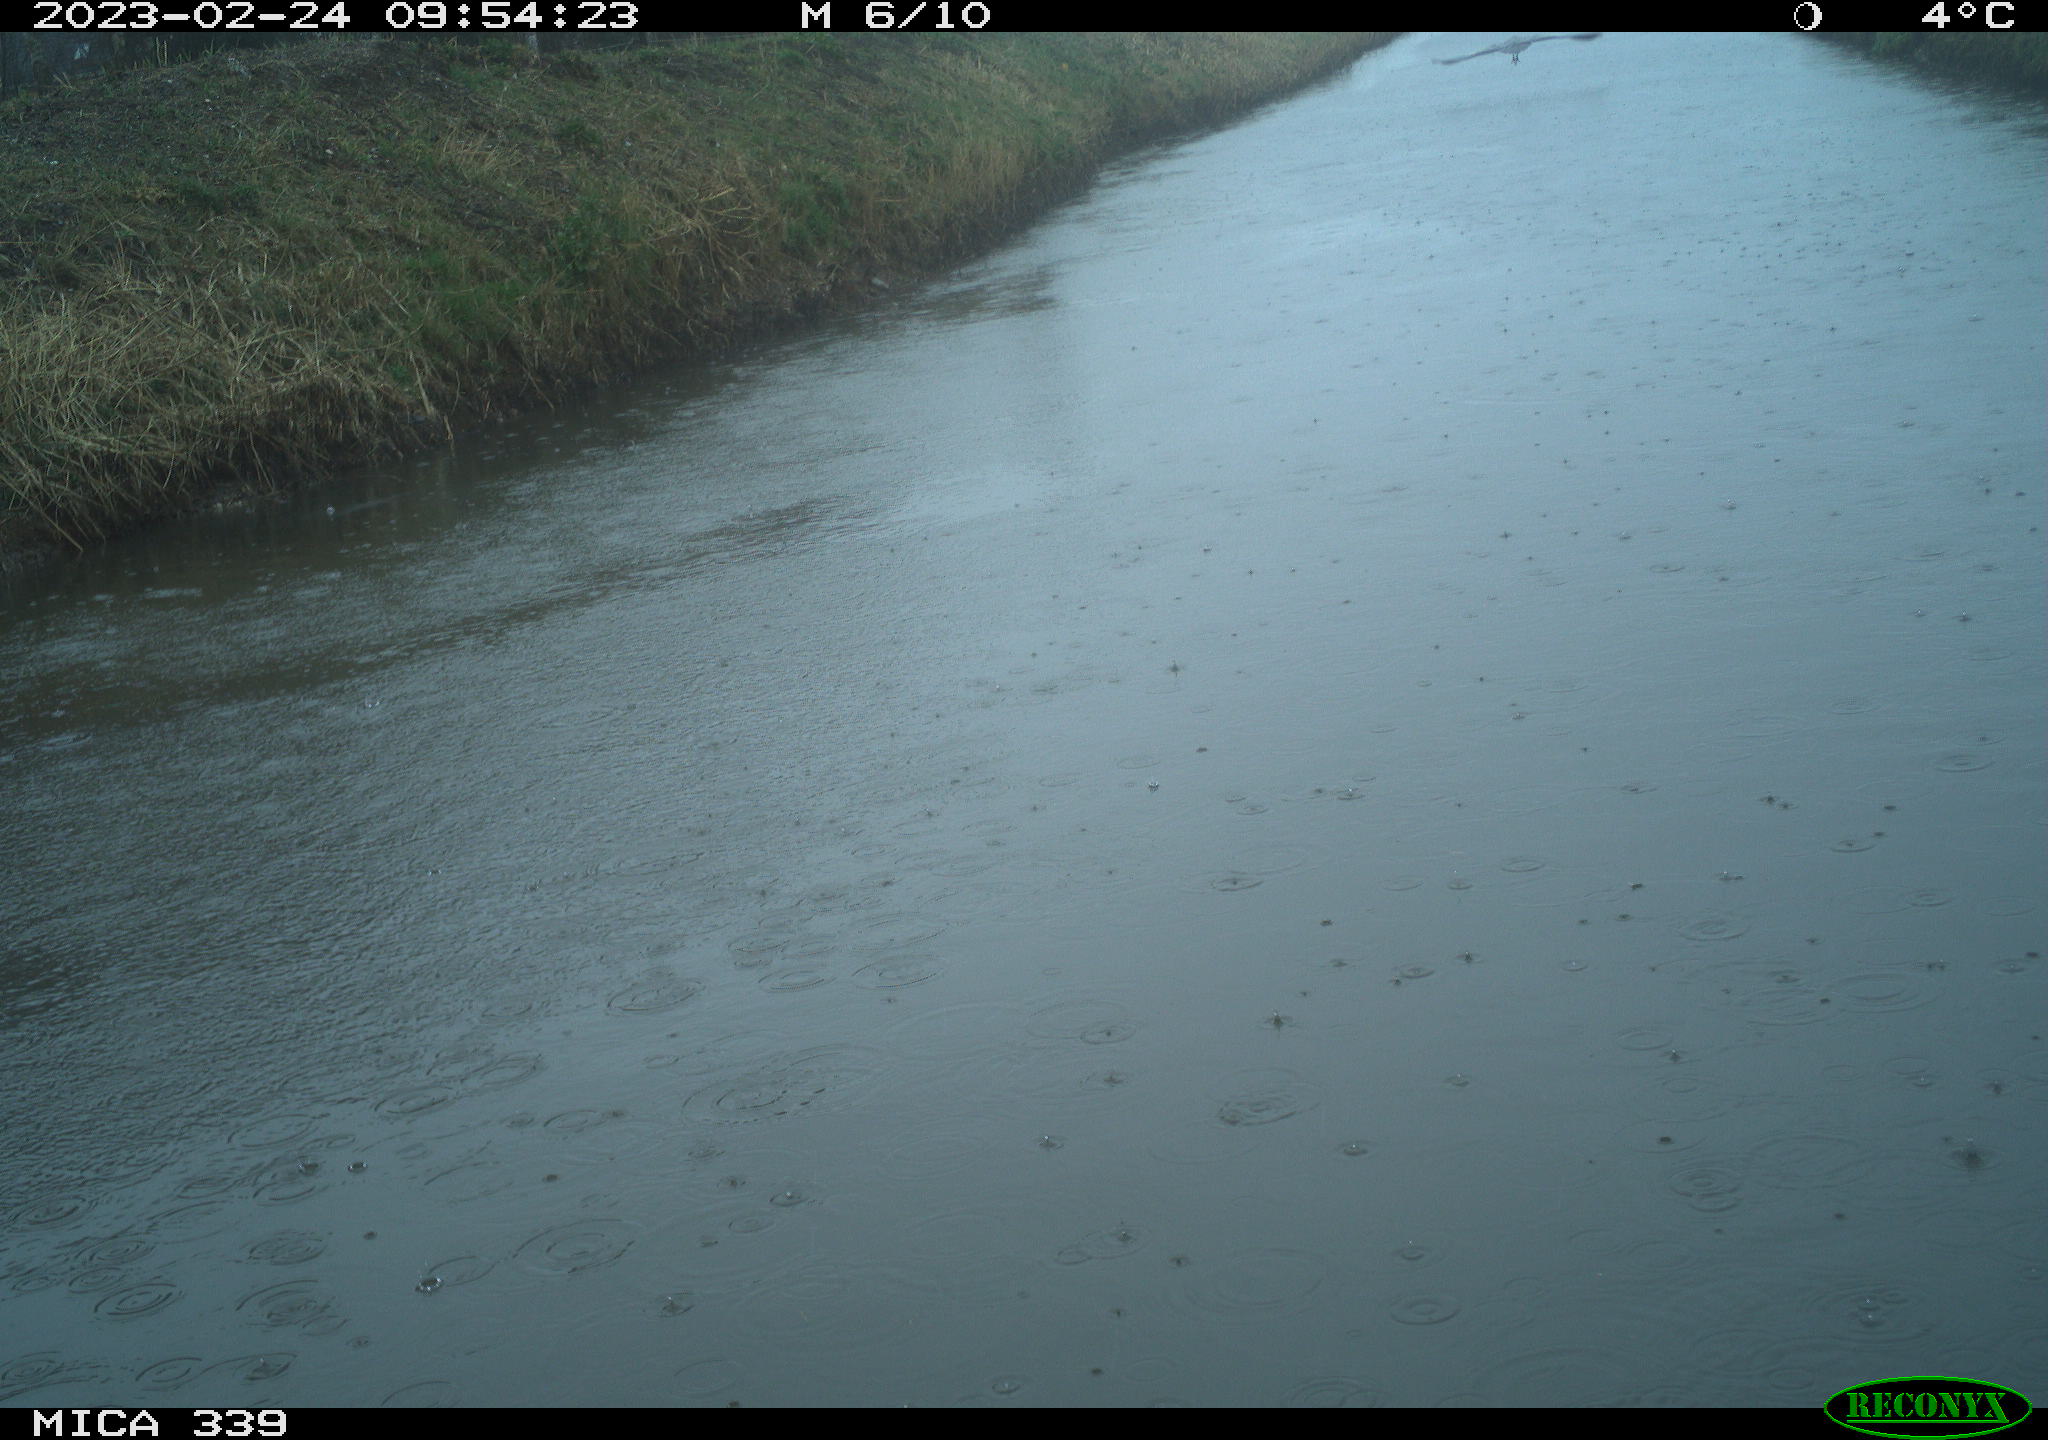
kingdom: Animalia
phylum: Chordata
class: Aves
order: Pelecaniformes
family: Ardeidae
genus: Ardea
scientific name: Ardea cinerea
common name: Grey heron
